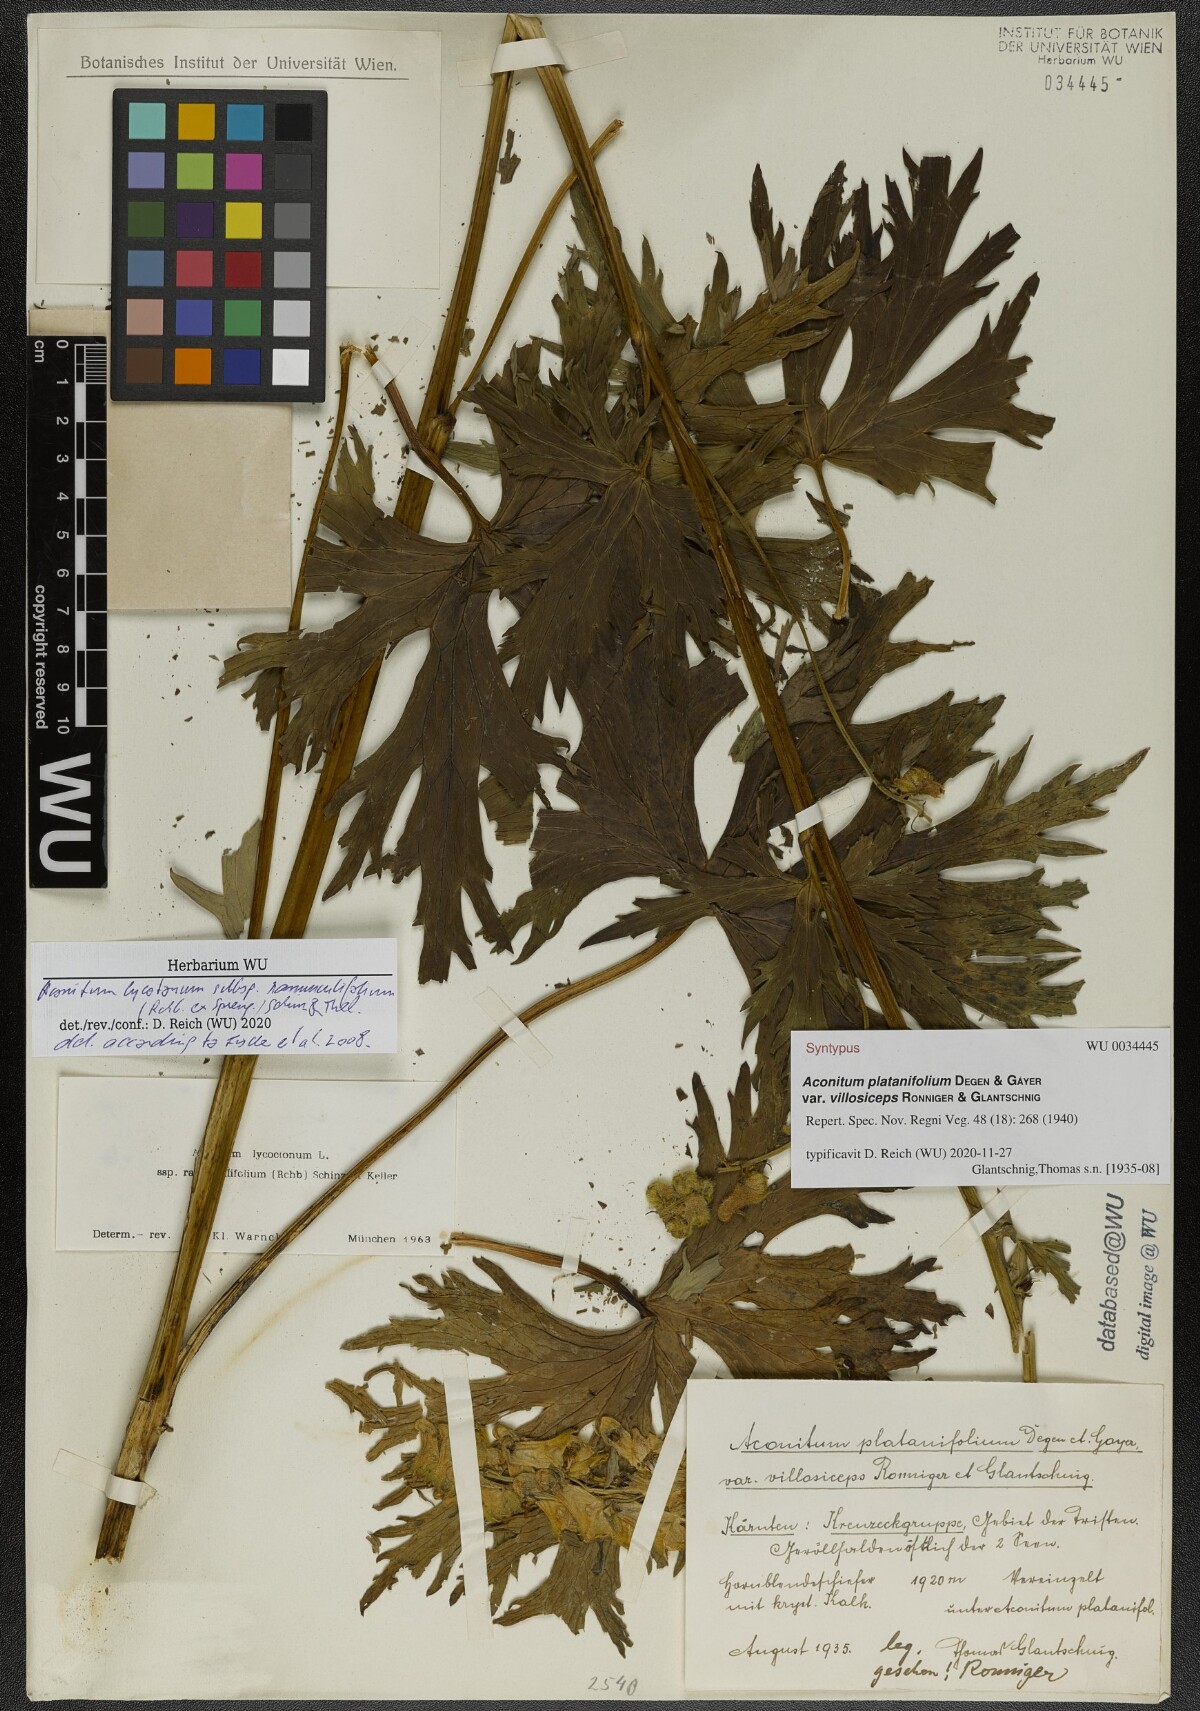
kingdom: Plantae
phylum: Tracheophyta
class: Magnoliopsida
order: Ranunculales
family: Ranunculaceae
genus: Aconitum
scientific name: Aconitum lycoctonum
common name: Wolf's-bane
